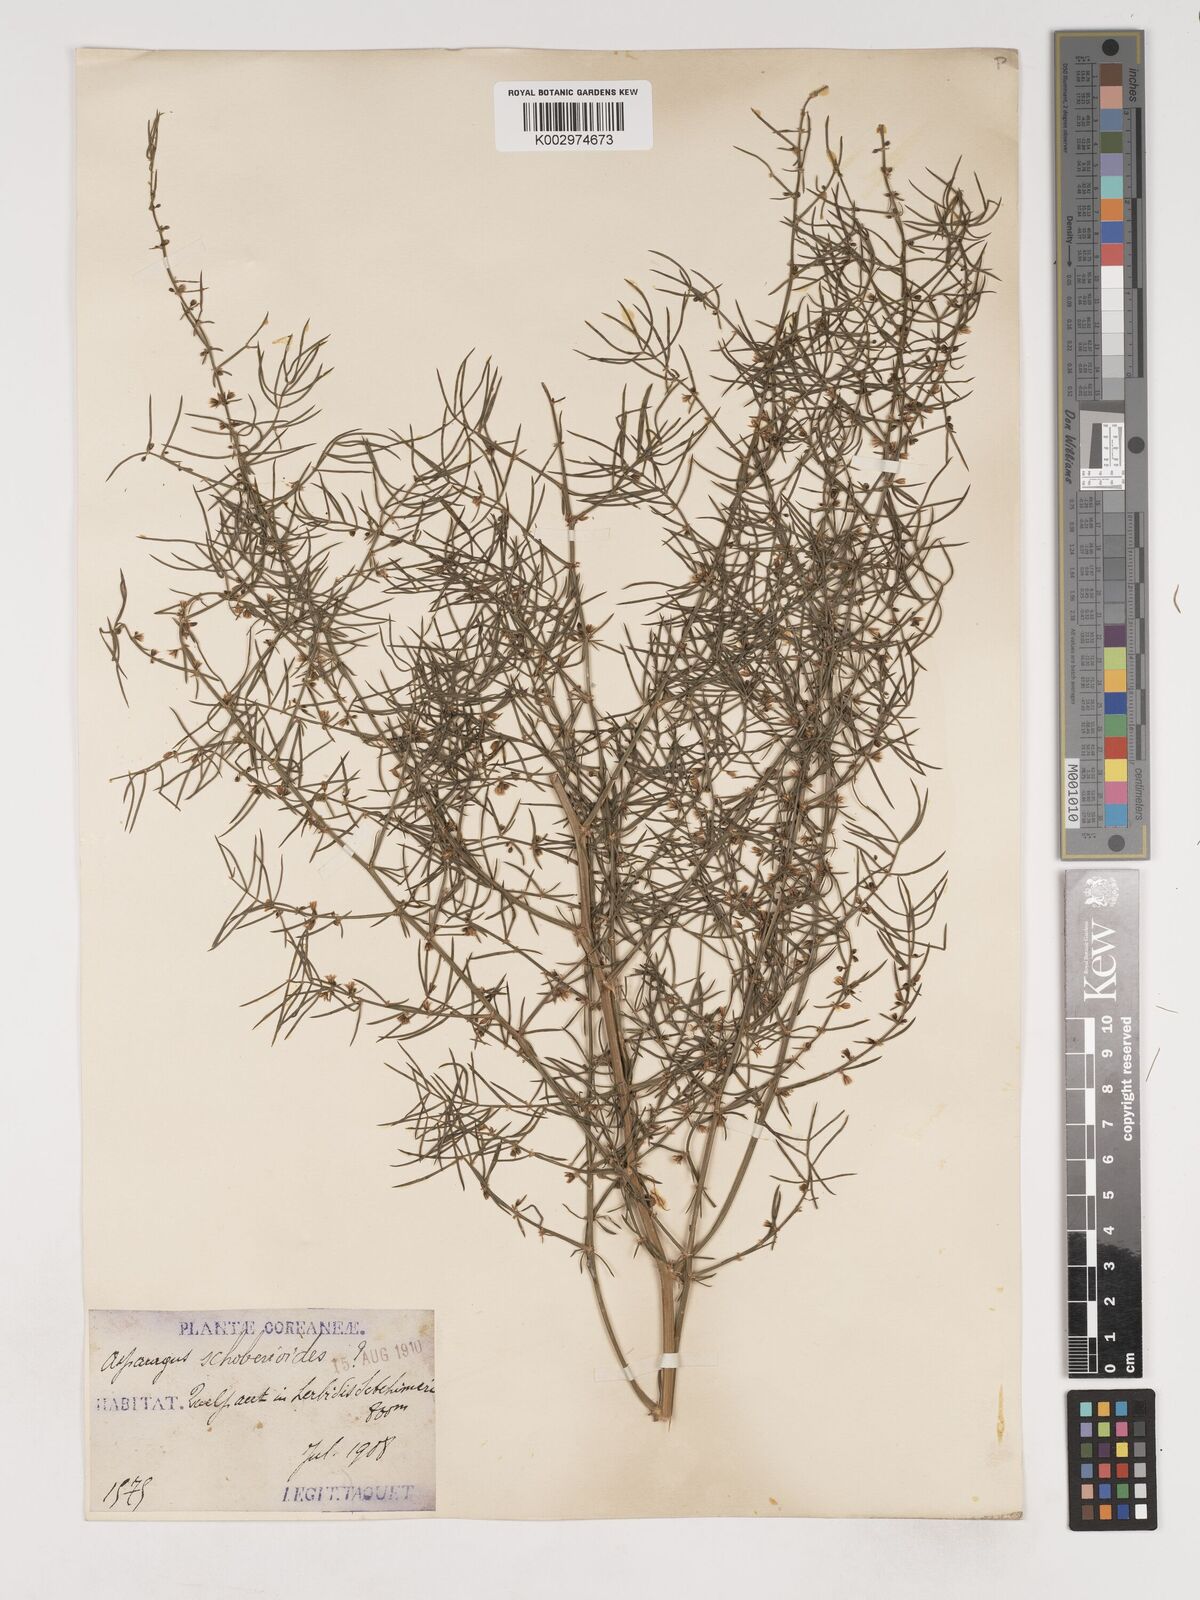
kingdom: Plantae
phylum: Tracheophyta
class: Liliopsida
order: Asparagales
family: Asparagaceae
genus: Asparagus
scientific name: Asparagus schoberioides
